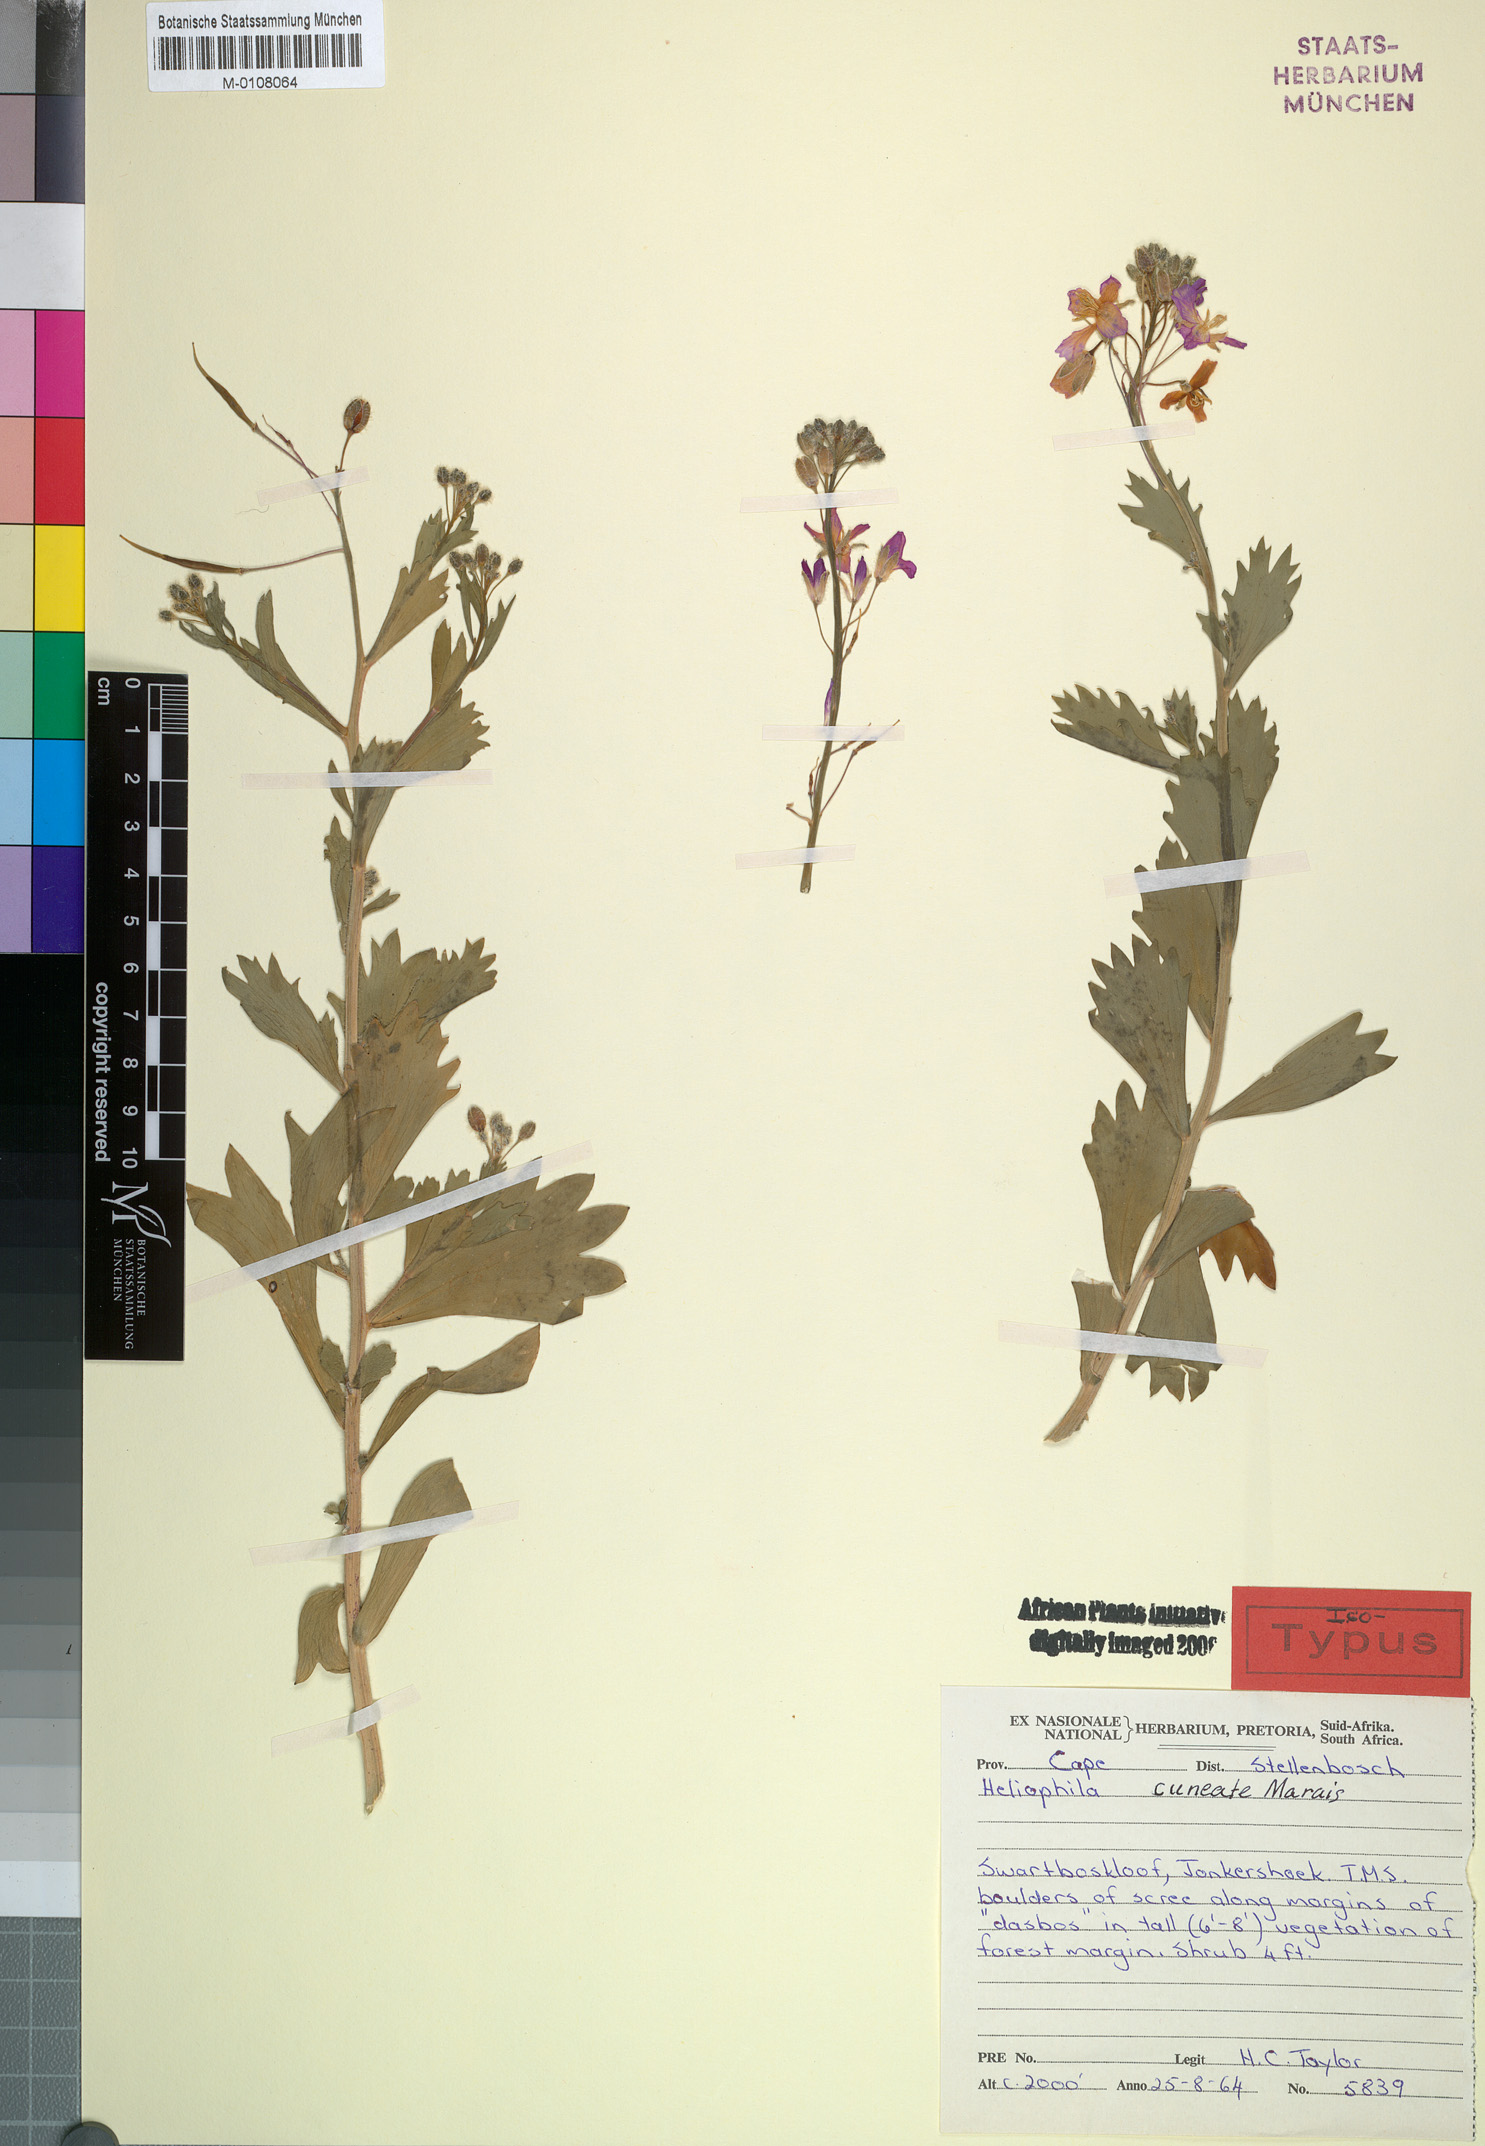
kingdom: Plantae
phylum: Tracheophyta
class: Magnoliopsida
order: Brassicales
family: Brassicaceae
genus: Heliophila
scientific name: Heliophila cuneata
